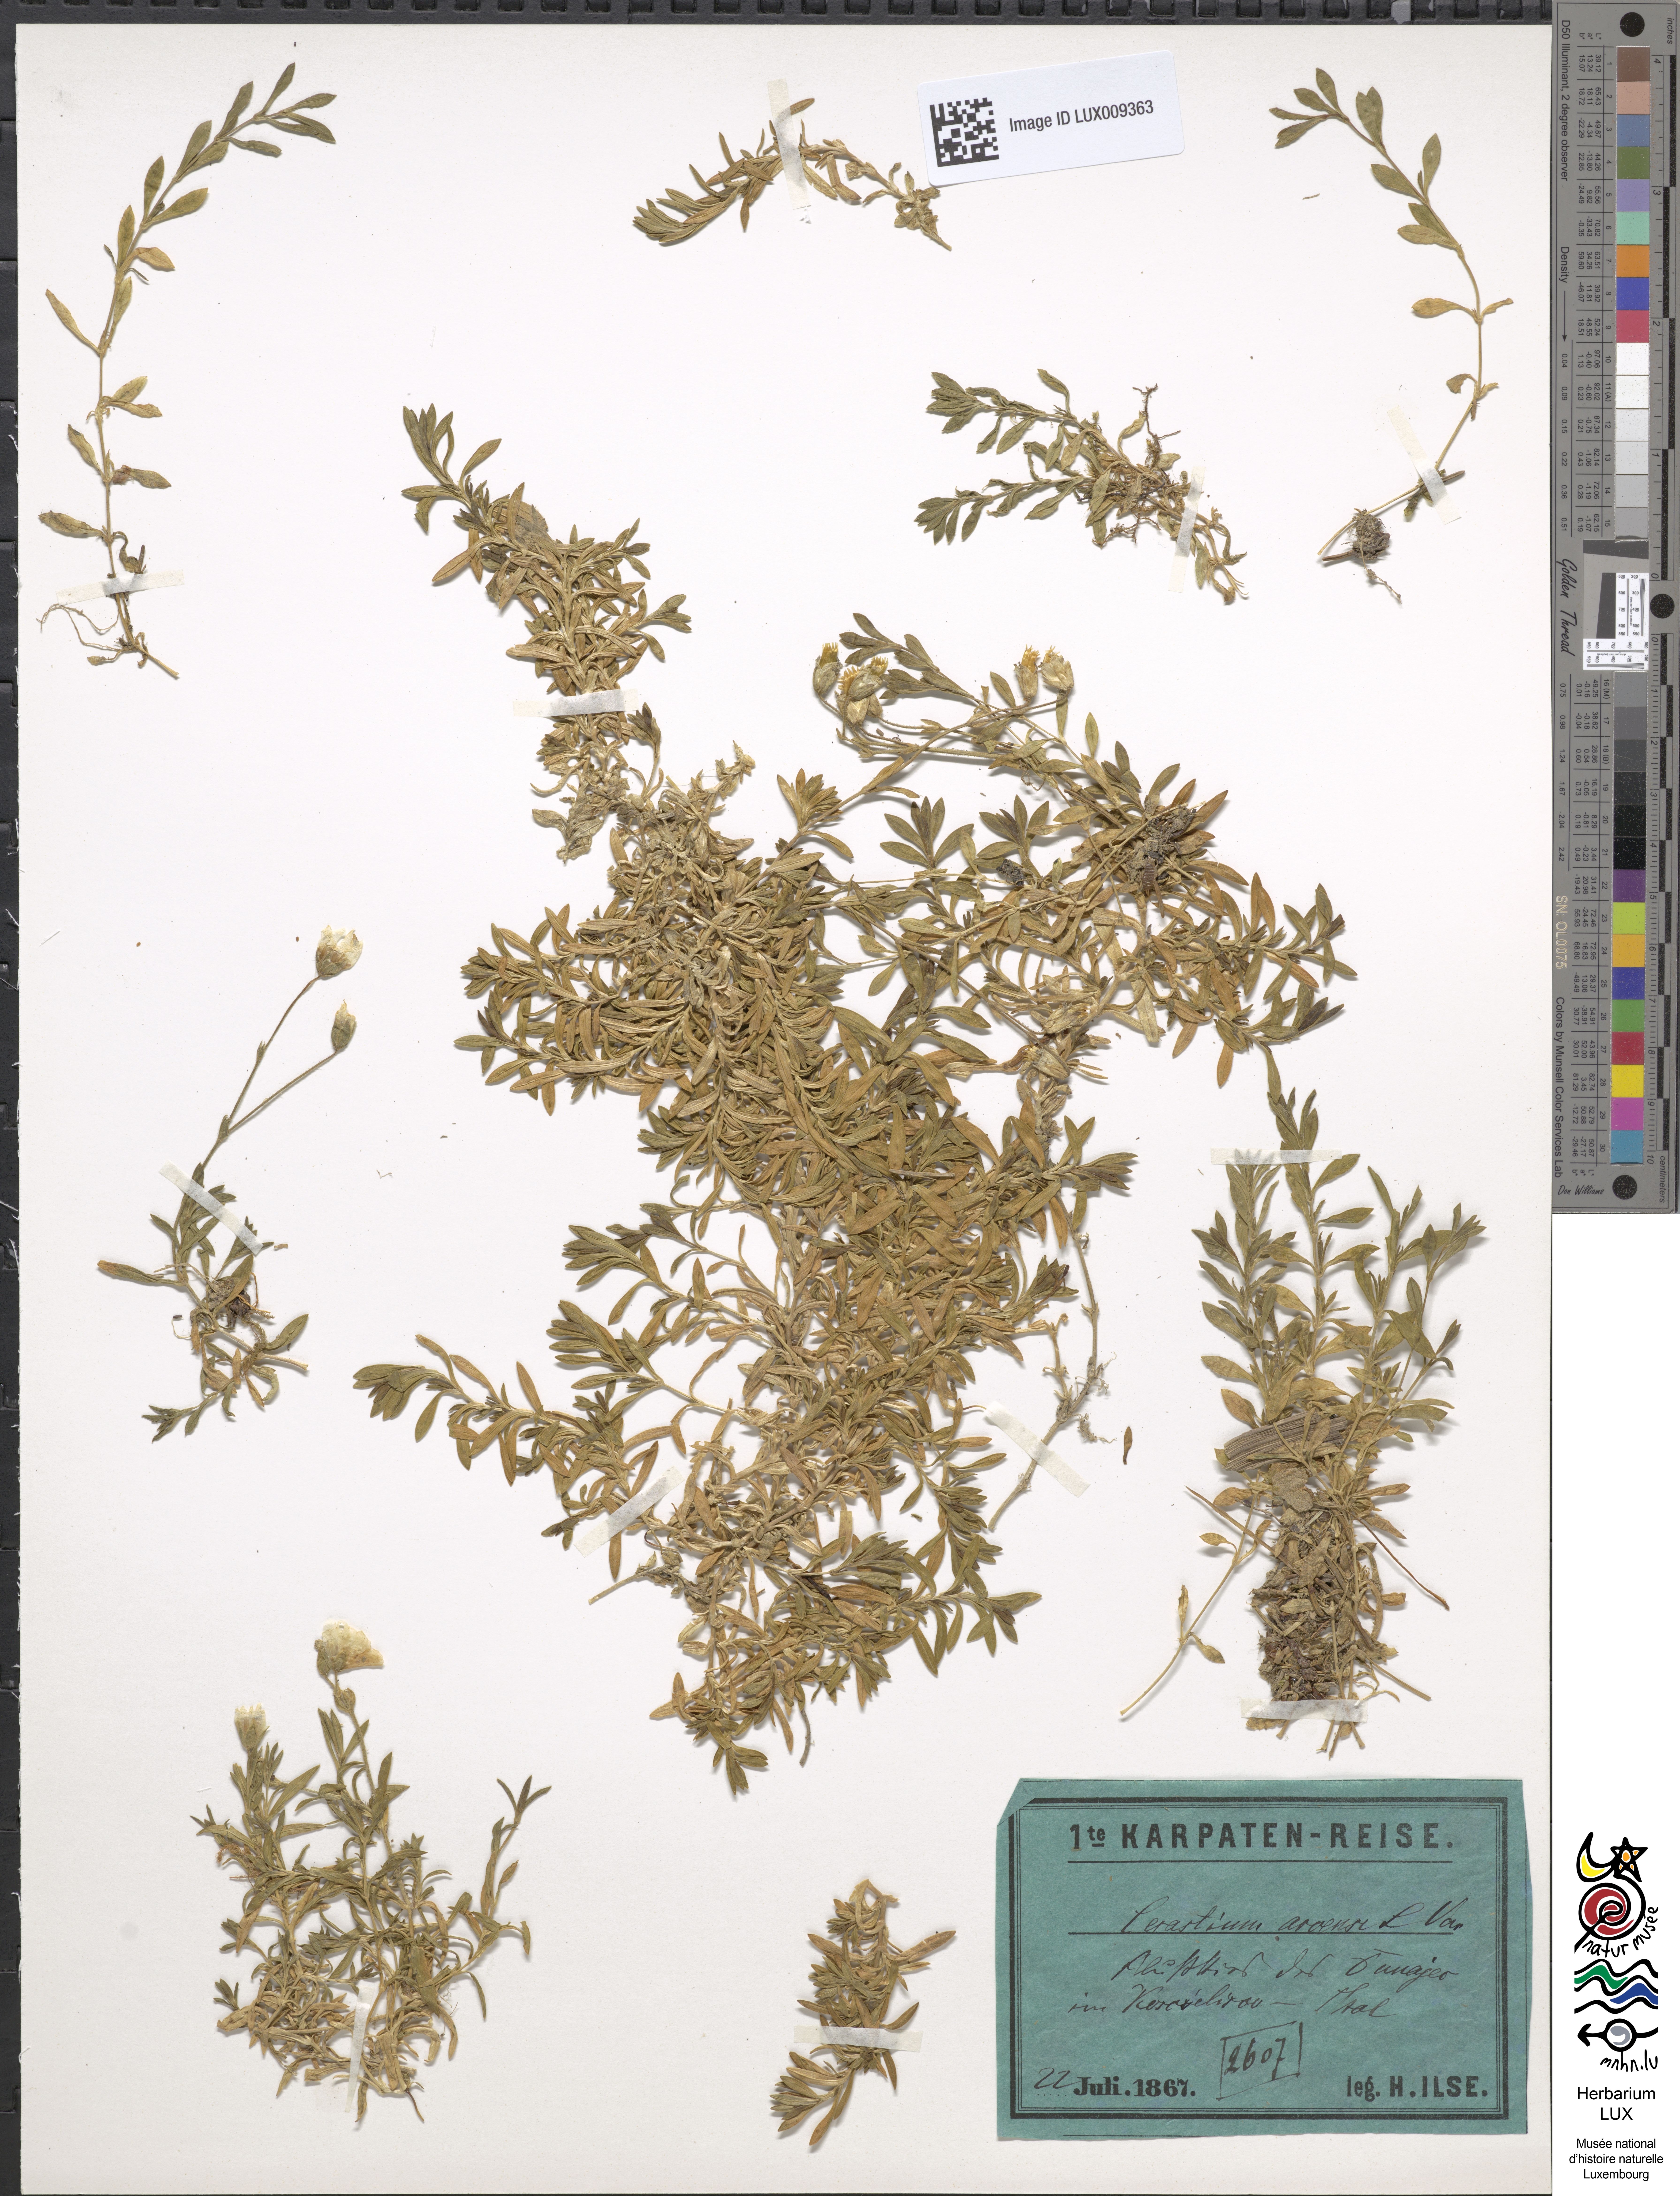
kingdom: Plantae
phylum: Tracheophyta
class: Magnoliopsida
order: Caryophyllales
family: Caryophyllaceae
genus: Cerastium
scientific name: Cerastium arvense
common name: Field mouse-ear
